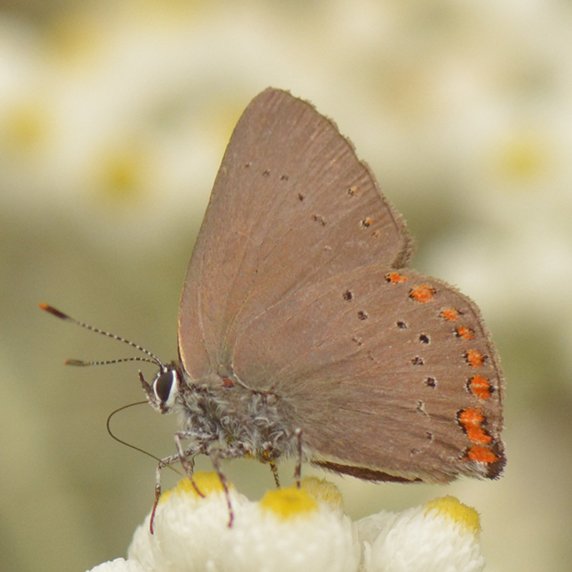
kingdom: Animalia
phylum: Arthropoda
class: Insecta
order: Lepidoptera
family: Lycaenidae
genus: Harkenclenus
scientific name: Harkenclenus titus
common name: Coral Hairstreak
